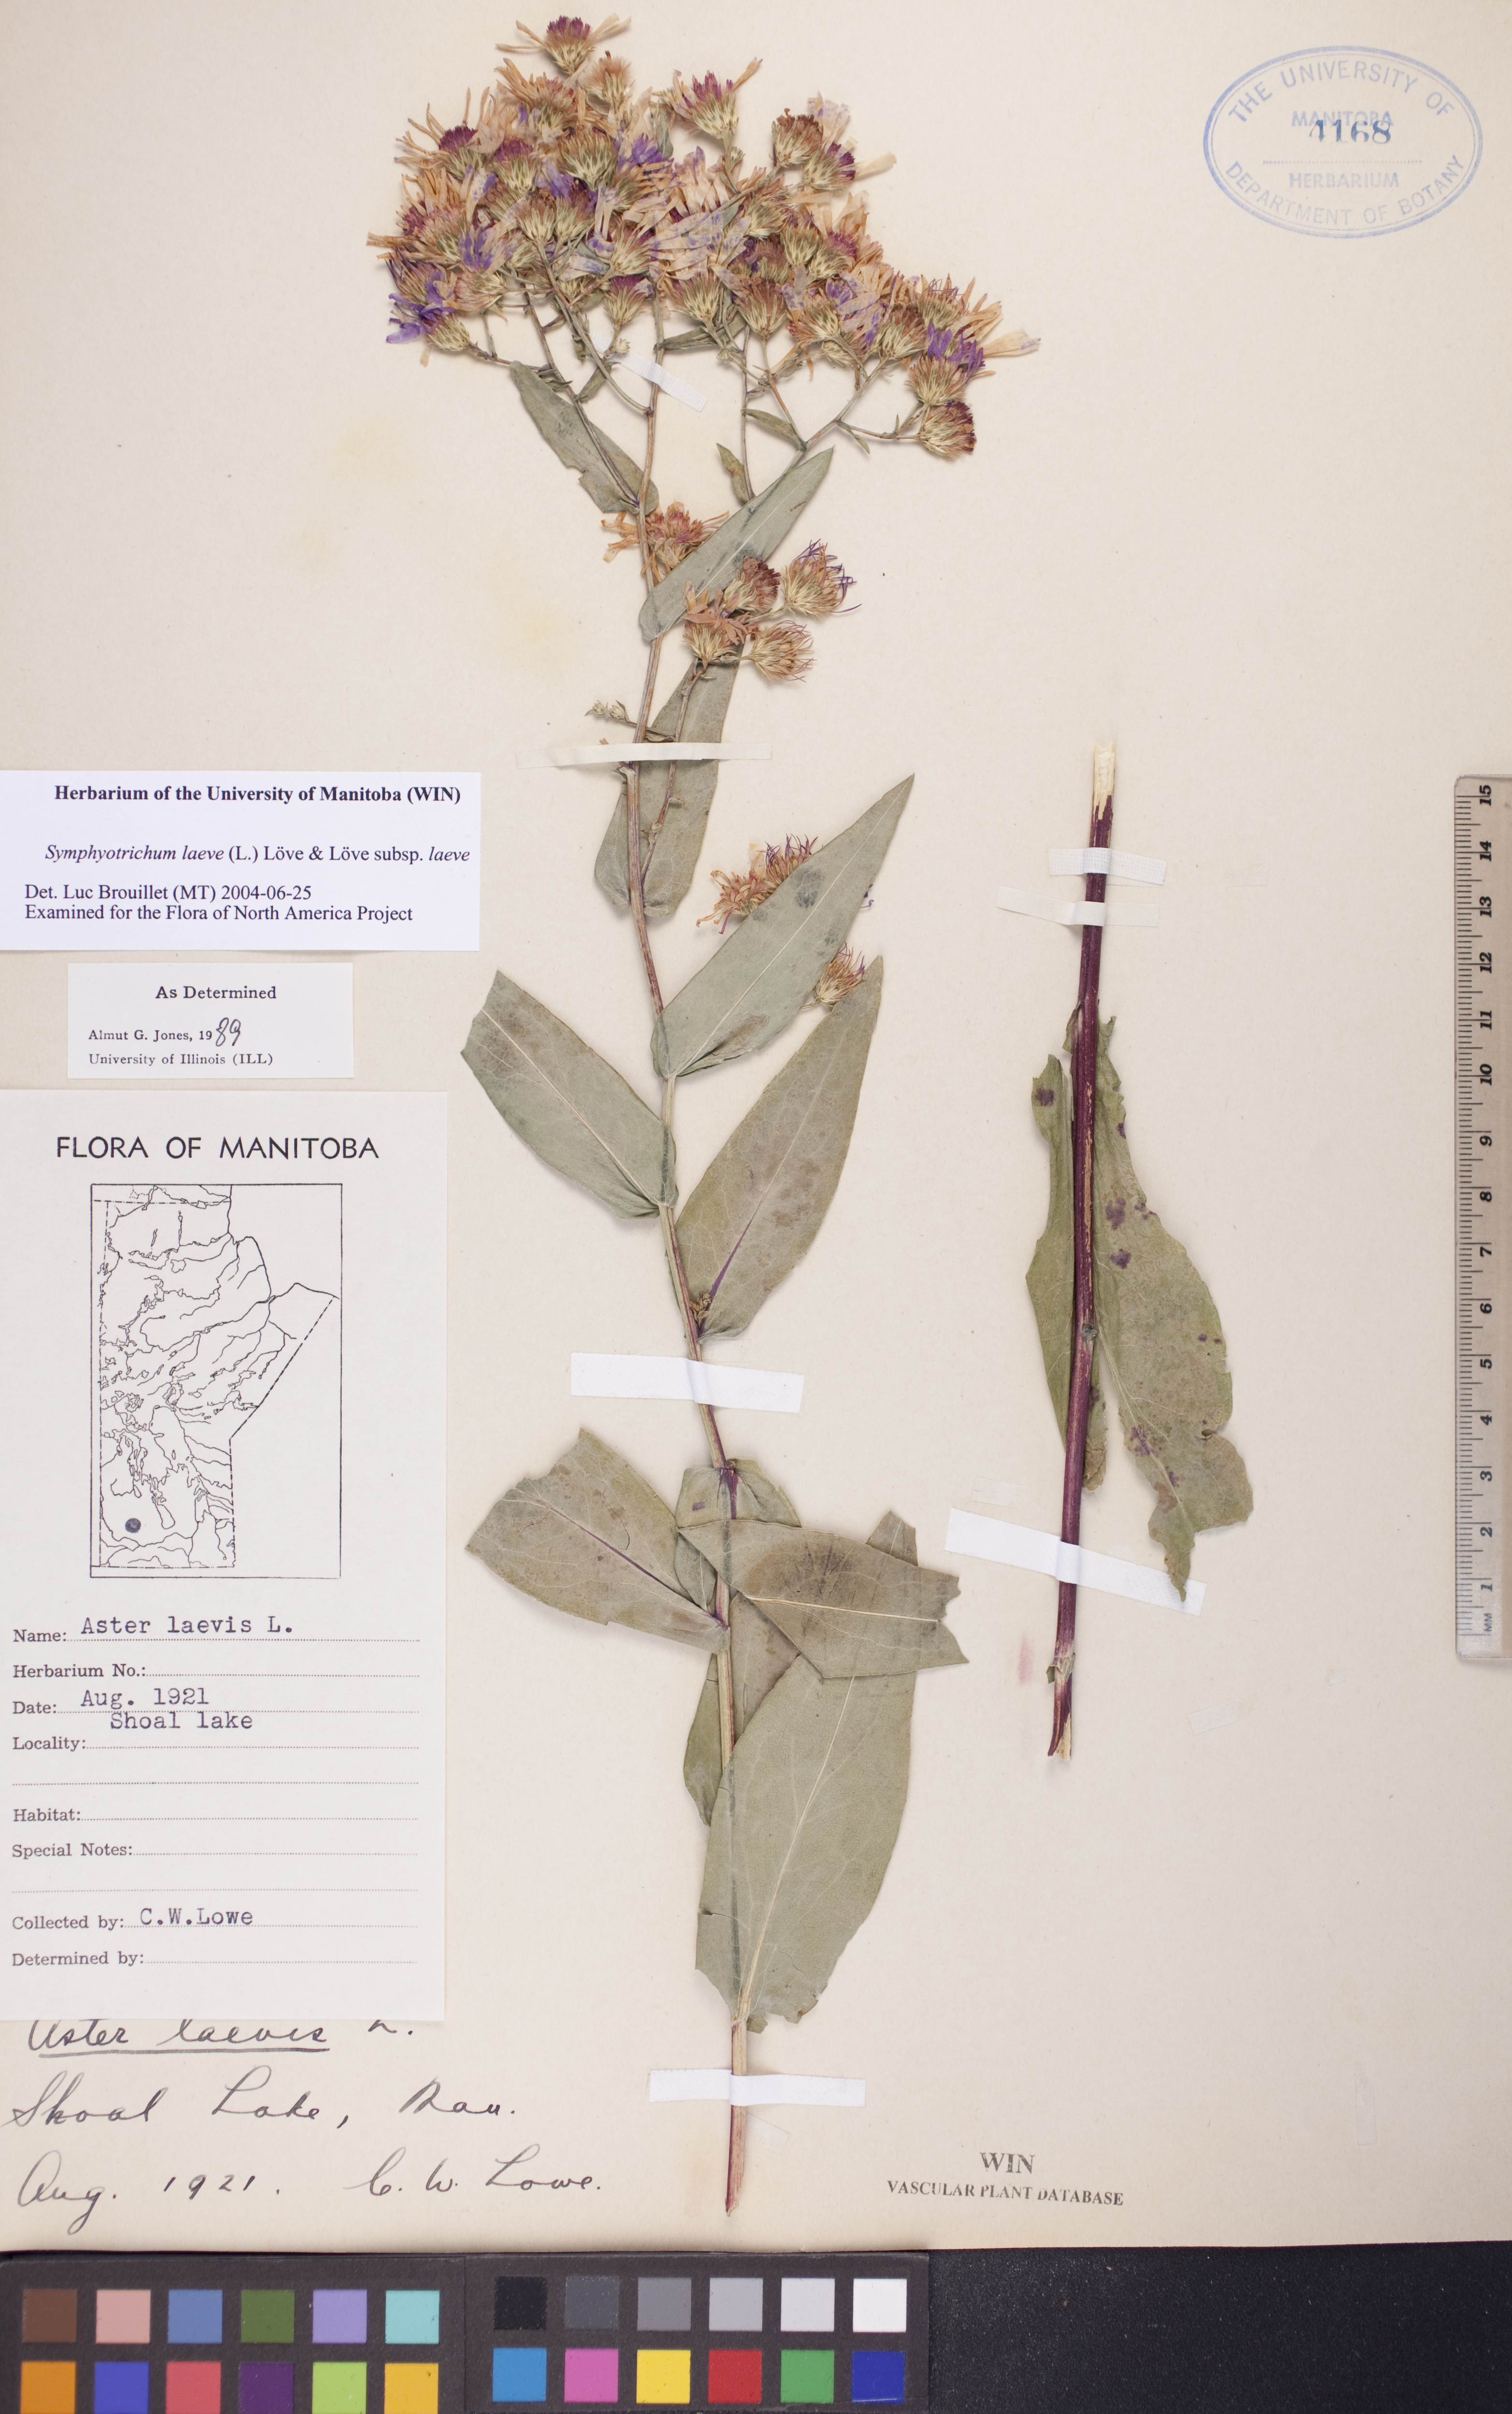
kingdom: Plantae
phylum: Tracheophyta
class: Magnoliopsida
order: Asterales
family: Asteraceae
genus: Symphyotrichum
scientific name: Symphyotrichum laeve
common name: Glaucous aster
